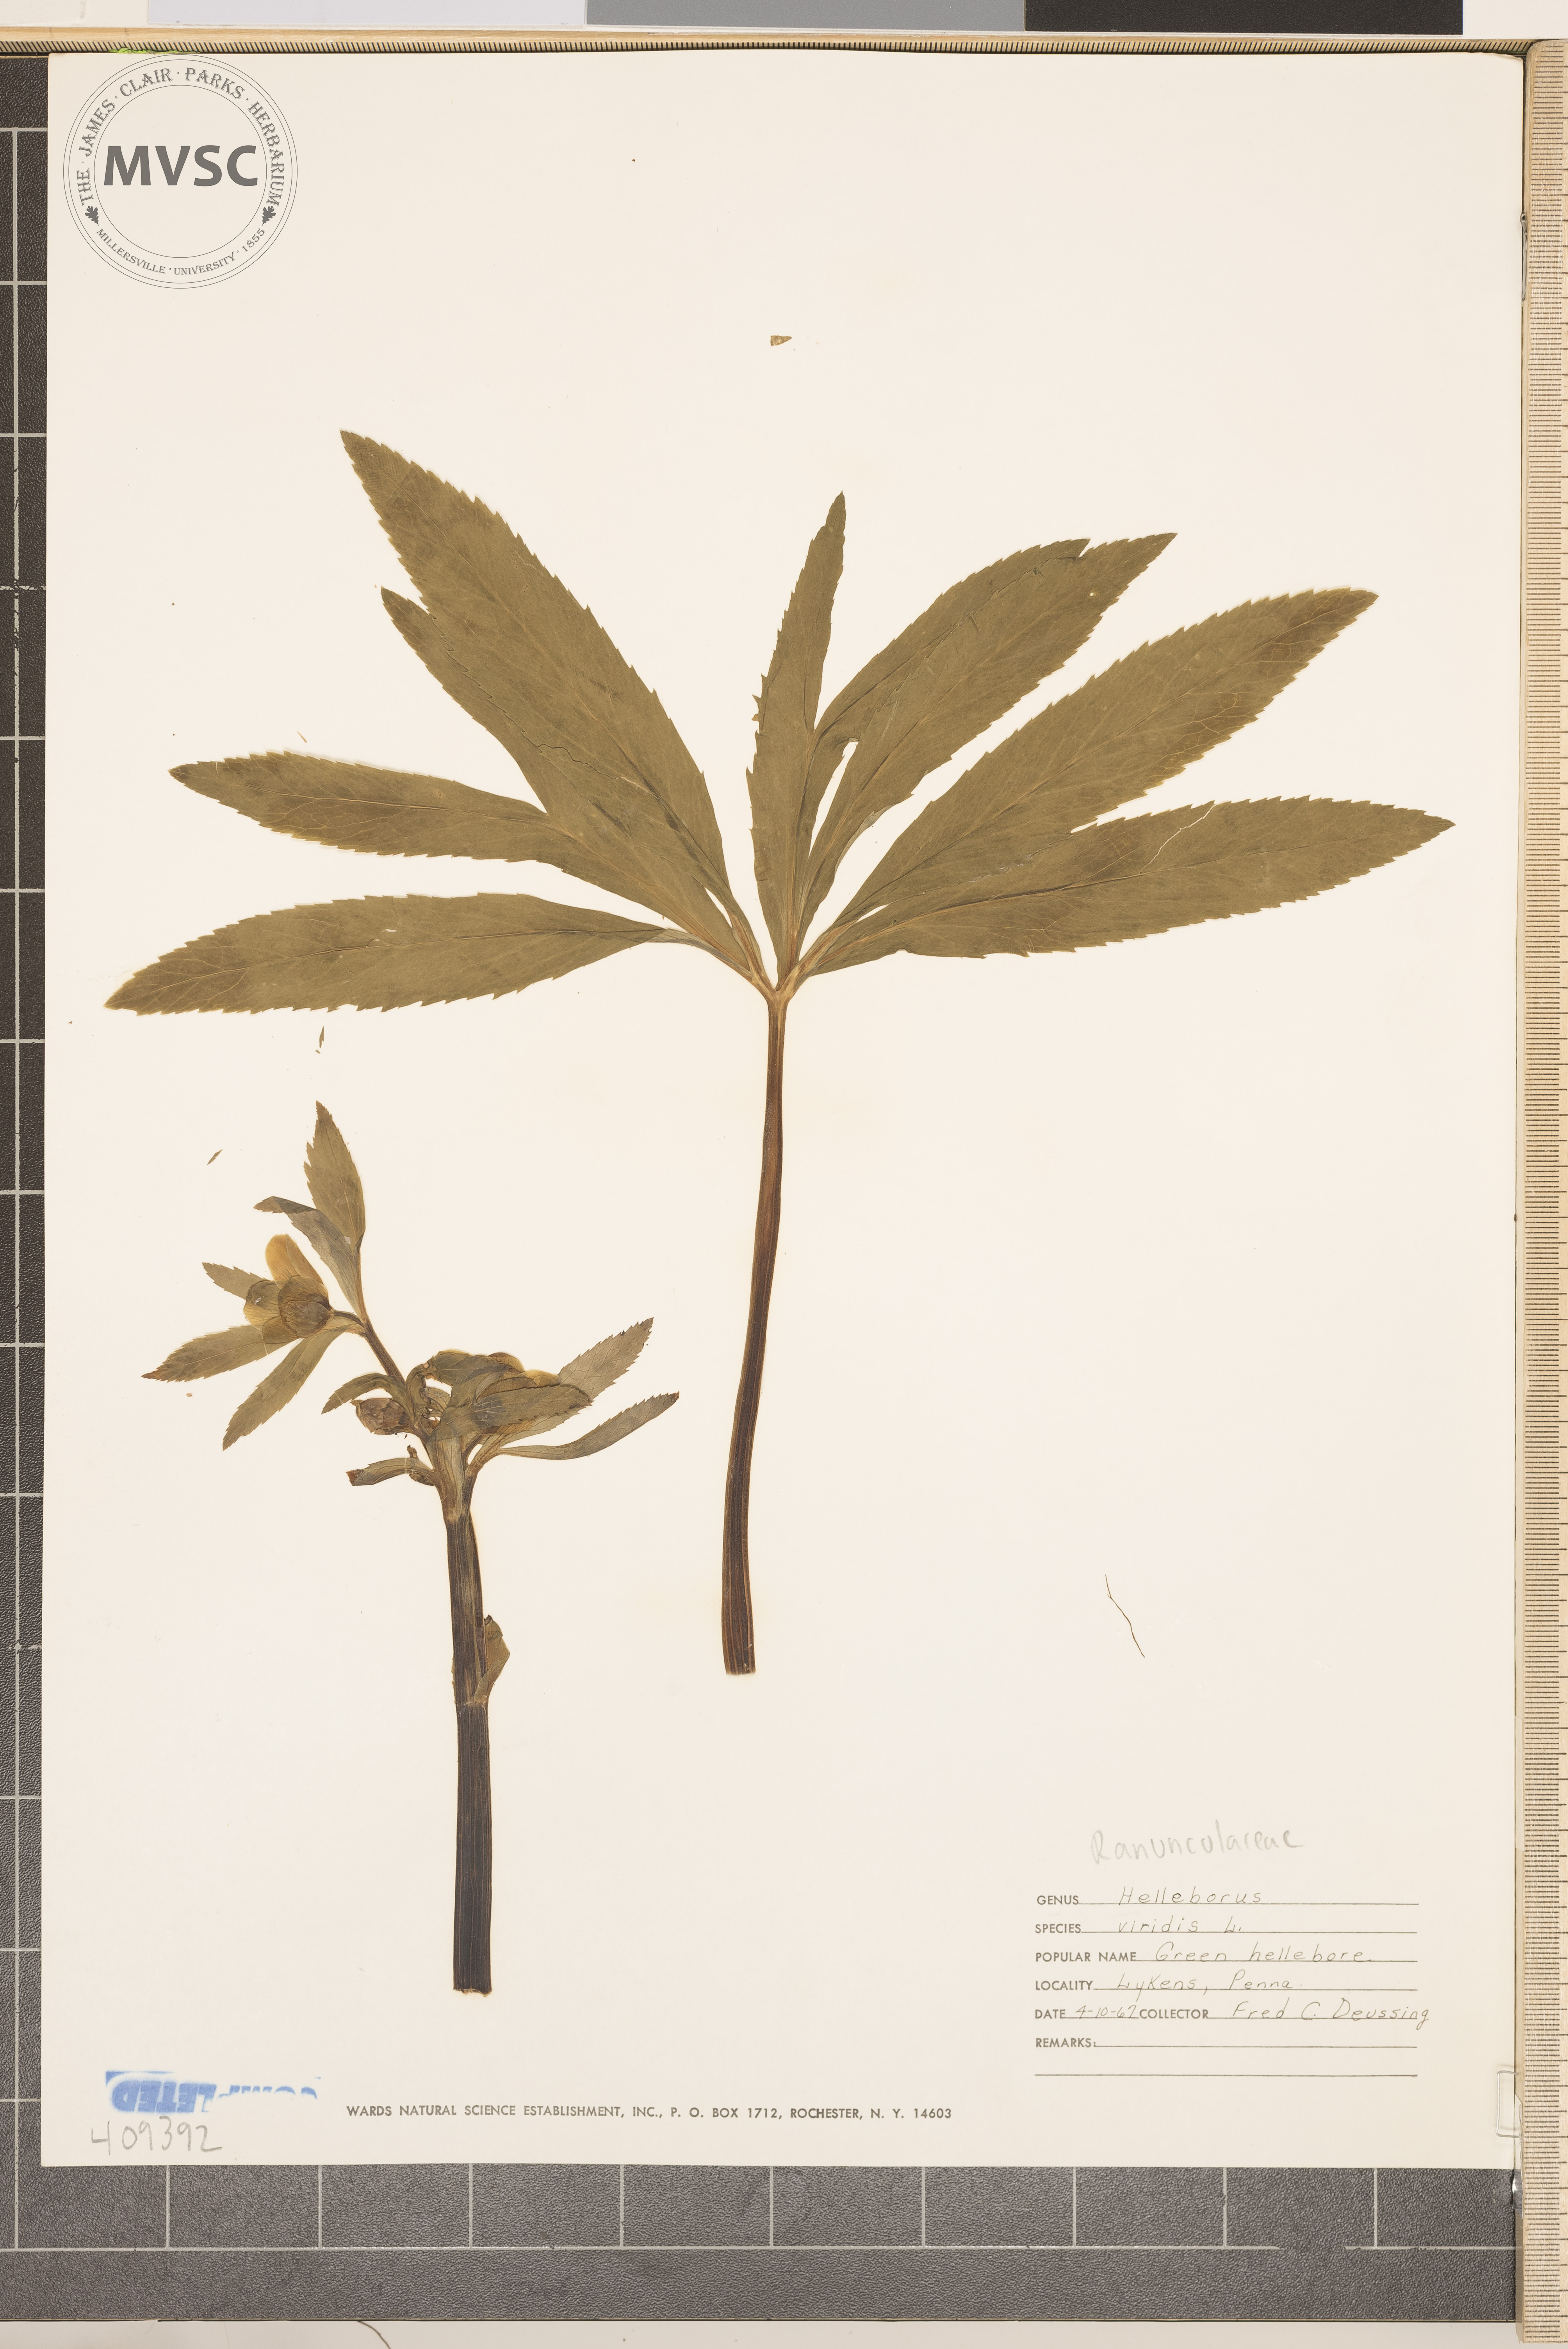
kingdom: Plantae
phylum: Tracheophyta
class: Magnoliopsida
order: Ranunculales
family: Ranunculaceae
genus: Helleborus
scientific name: Helleborus viridis
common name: Green hellebore
